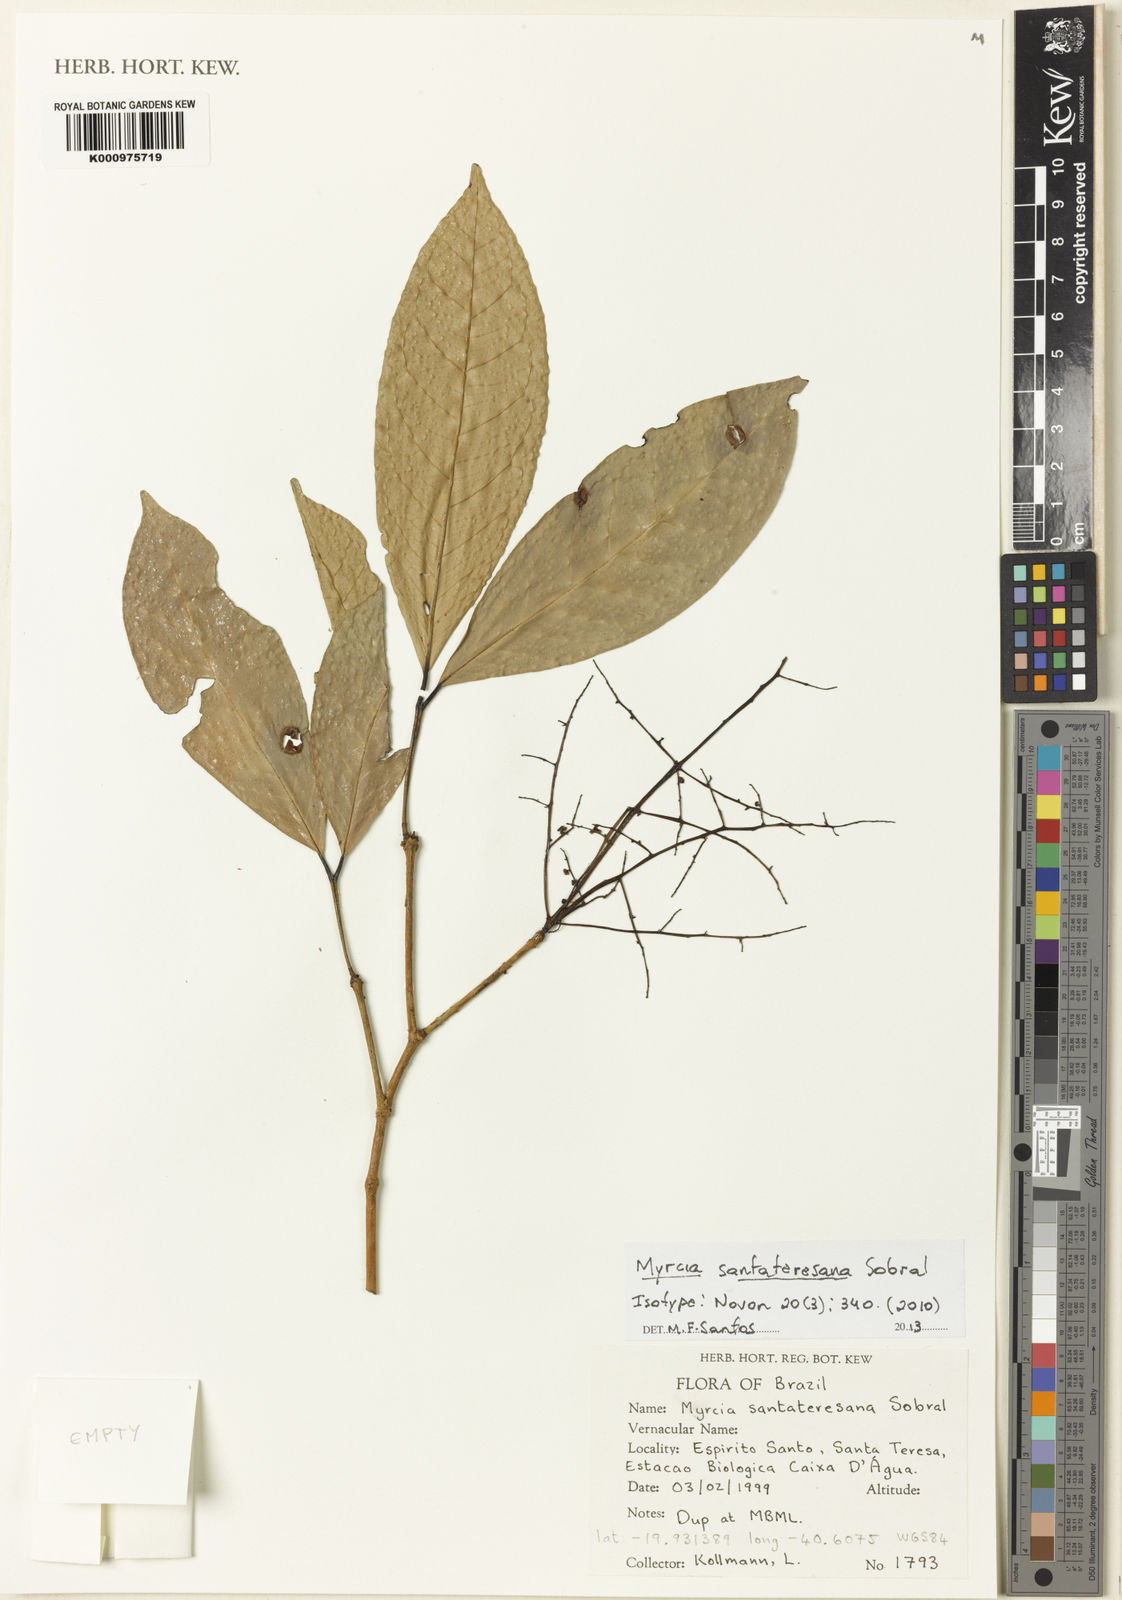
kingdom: Plantae
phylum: Tracheophyta
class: Magnoliopsida
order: Myrtales
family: Myrtaceae
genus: Myrcia
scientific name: Myrcia santateresana
